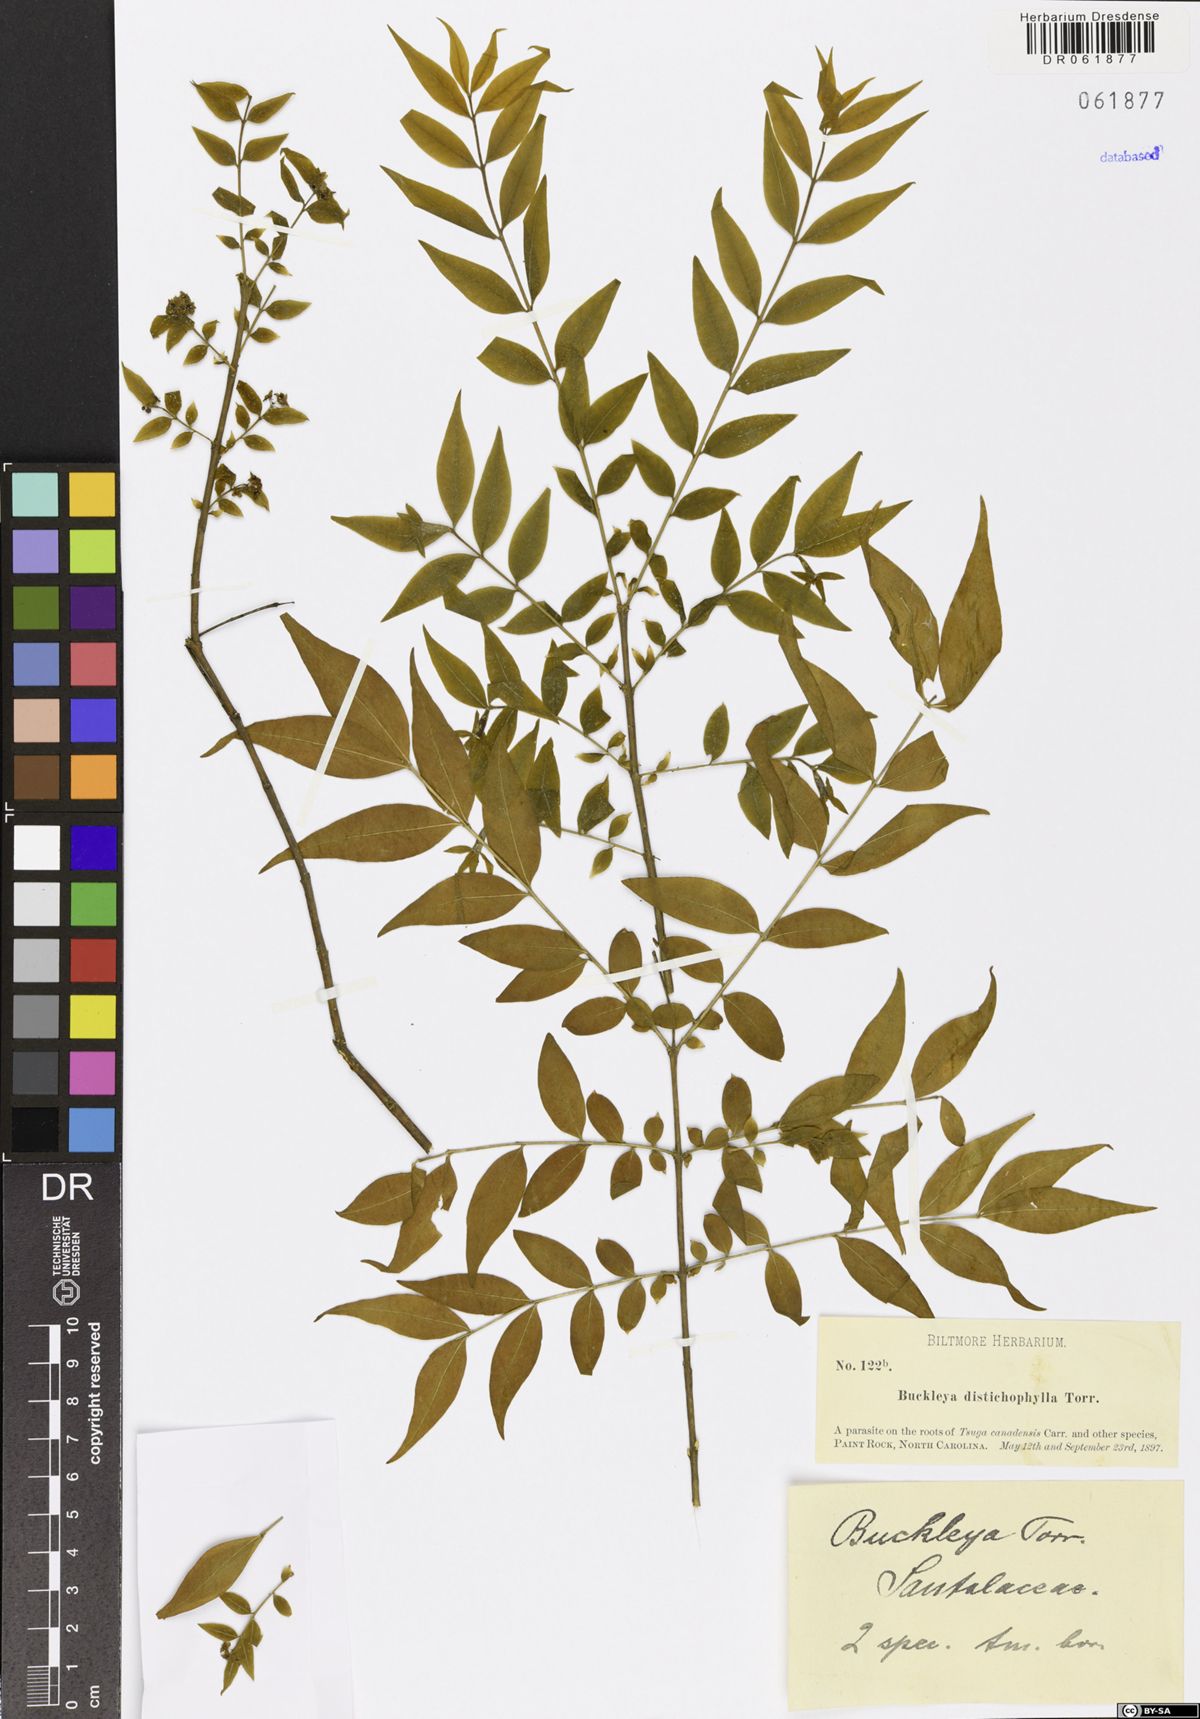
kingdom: Plantae
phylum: Tracheophyta
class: Magnoliopsida
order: Santalales
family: Thesiaceae
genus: Buckleya
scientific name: Buckleya distichophylla
